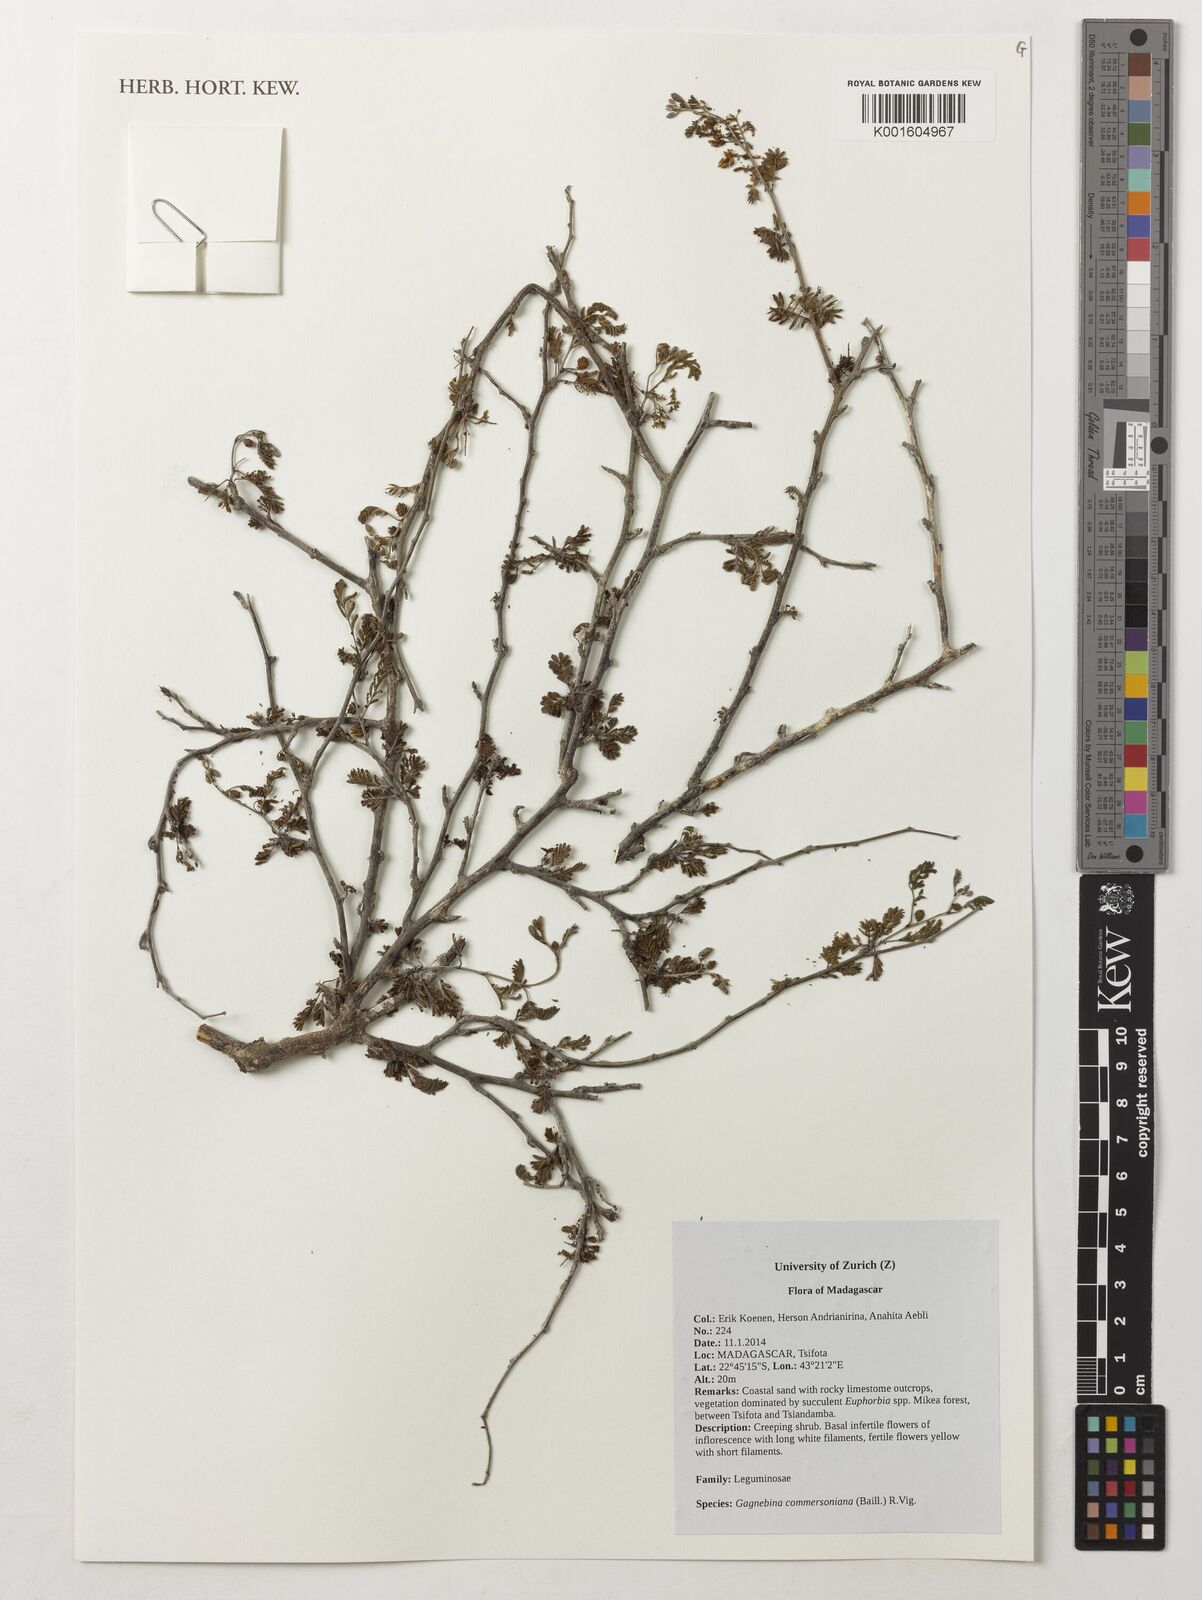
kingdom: Plantae
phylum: Tracheophyta
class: Magnoliopsida
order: Fabales
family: Fabaceae
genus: Gagnebina
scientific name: Gagnebina commersoniana
